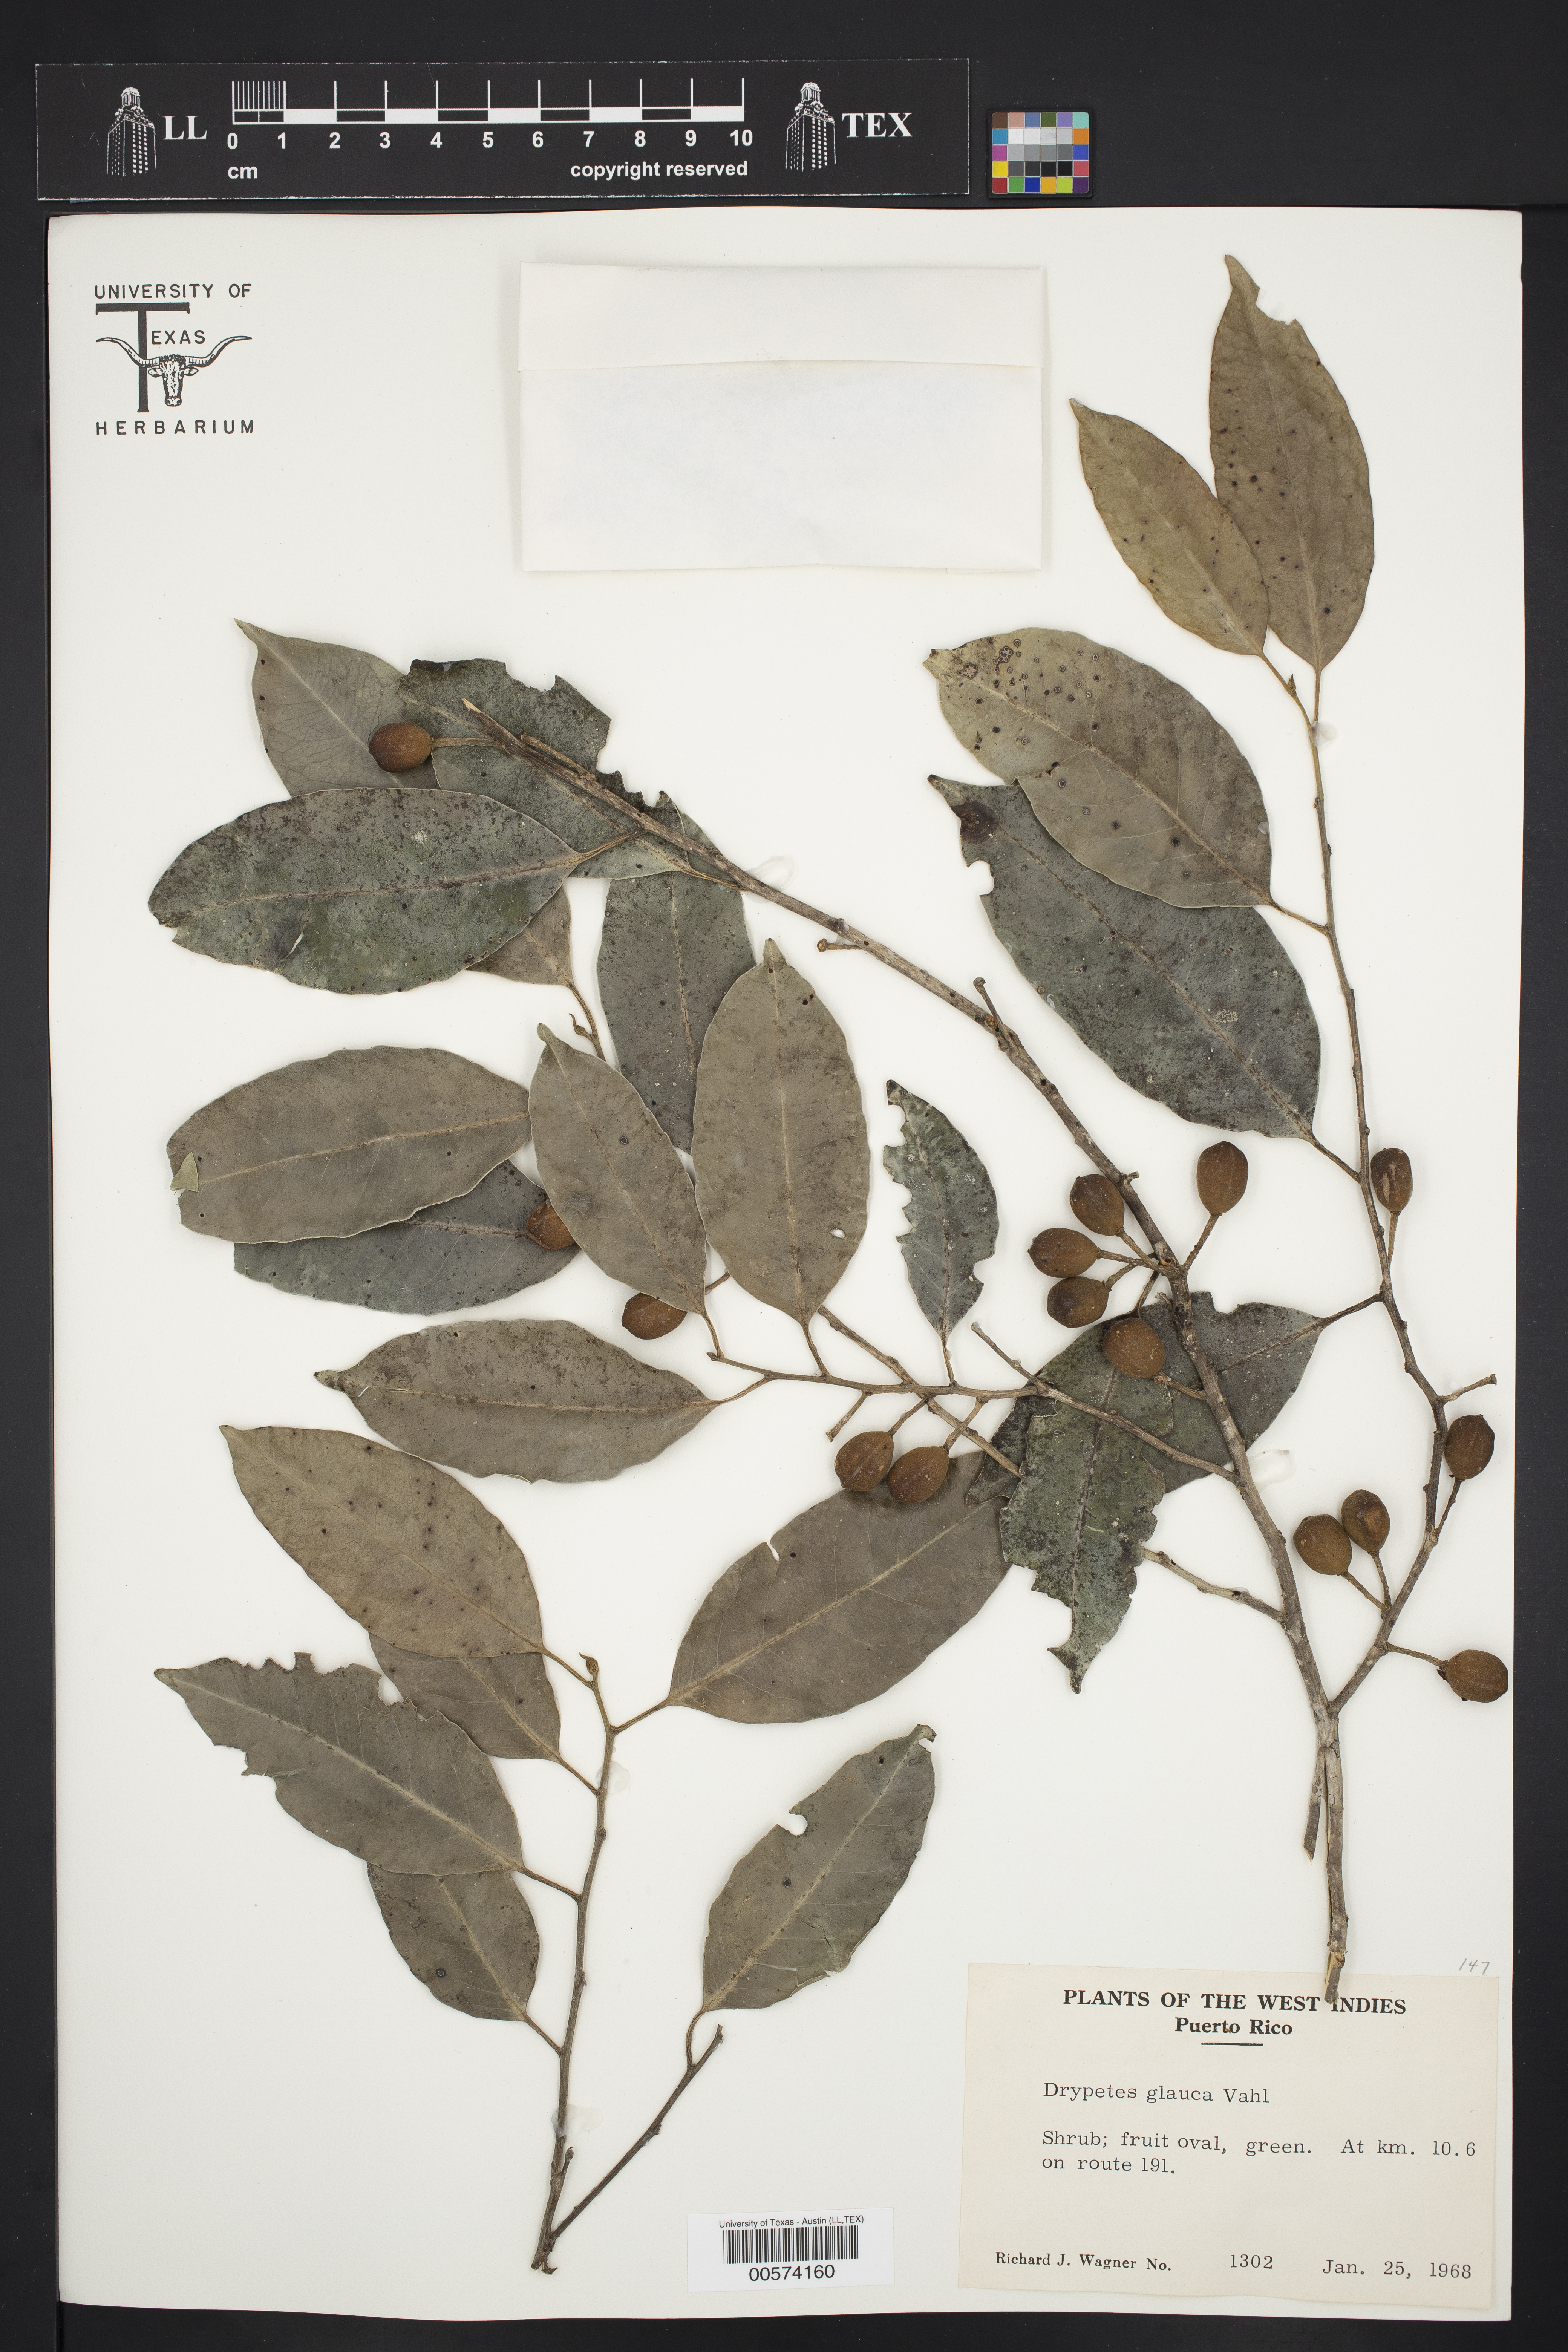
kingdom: Plantae
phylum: Tracheophyta
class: Magnoliopsida
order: Malpighiales
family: Putranjivaceae
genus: Drypetes
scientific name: Drypetes glauca
